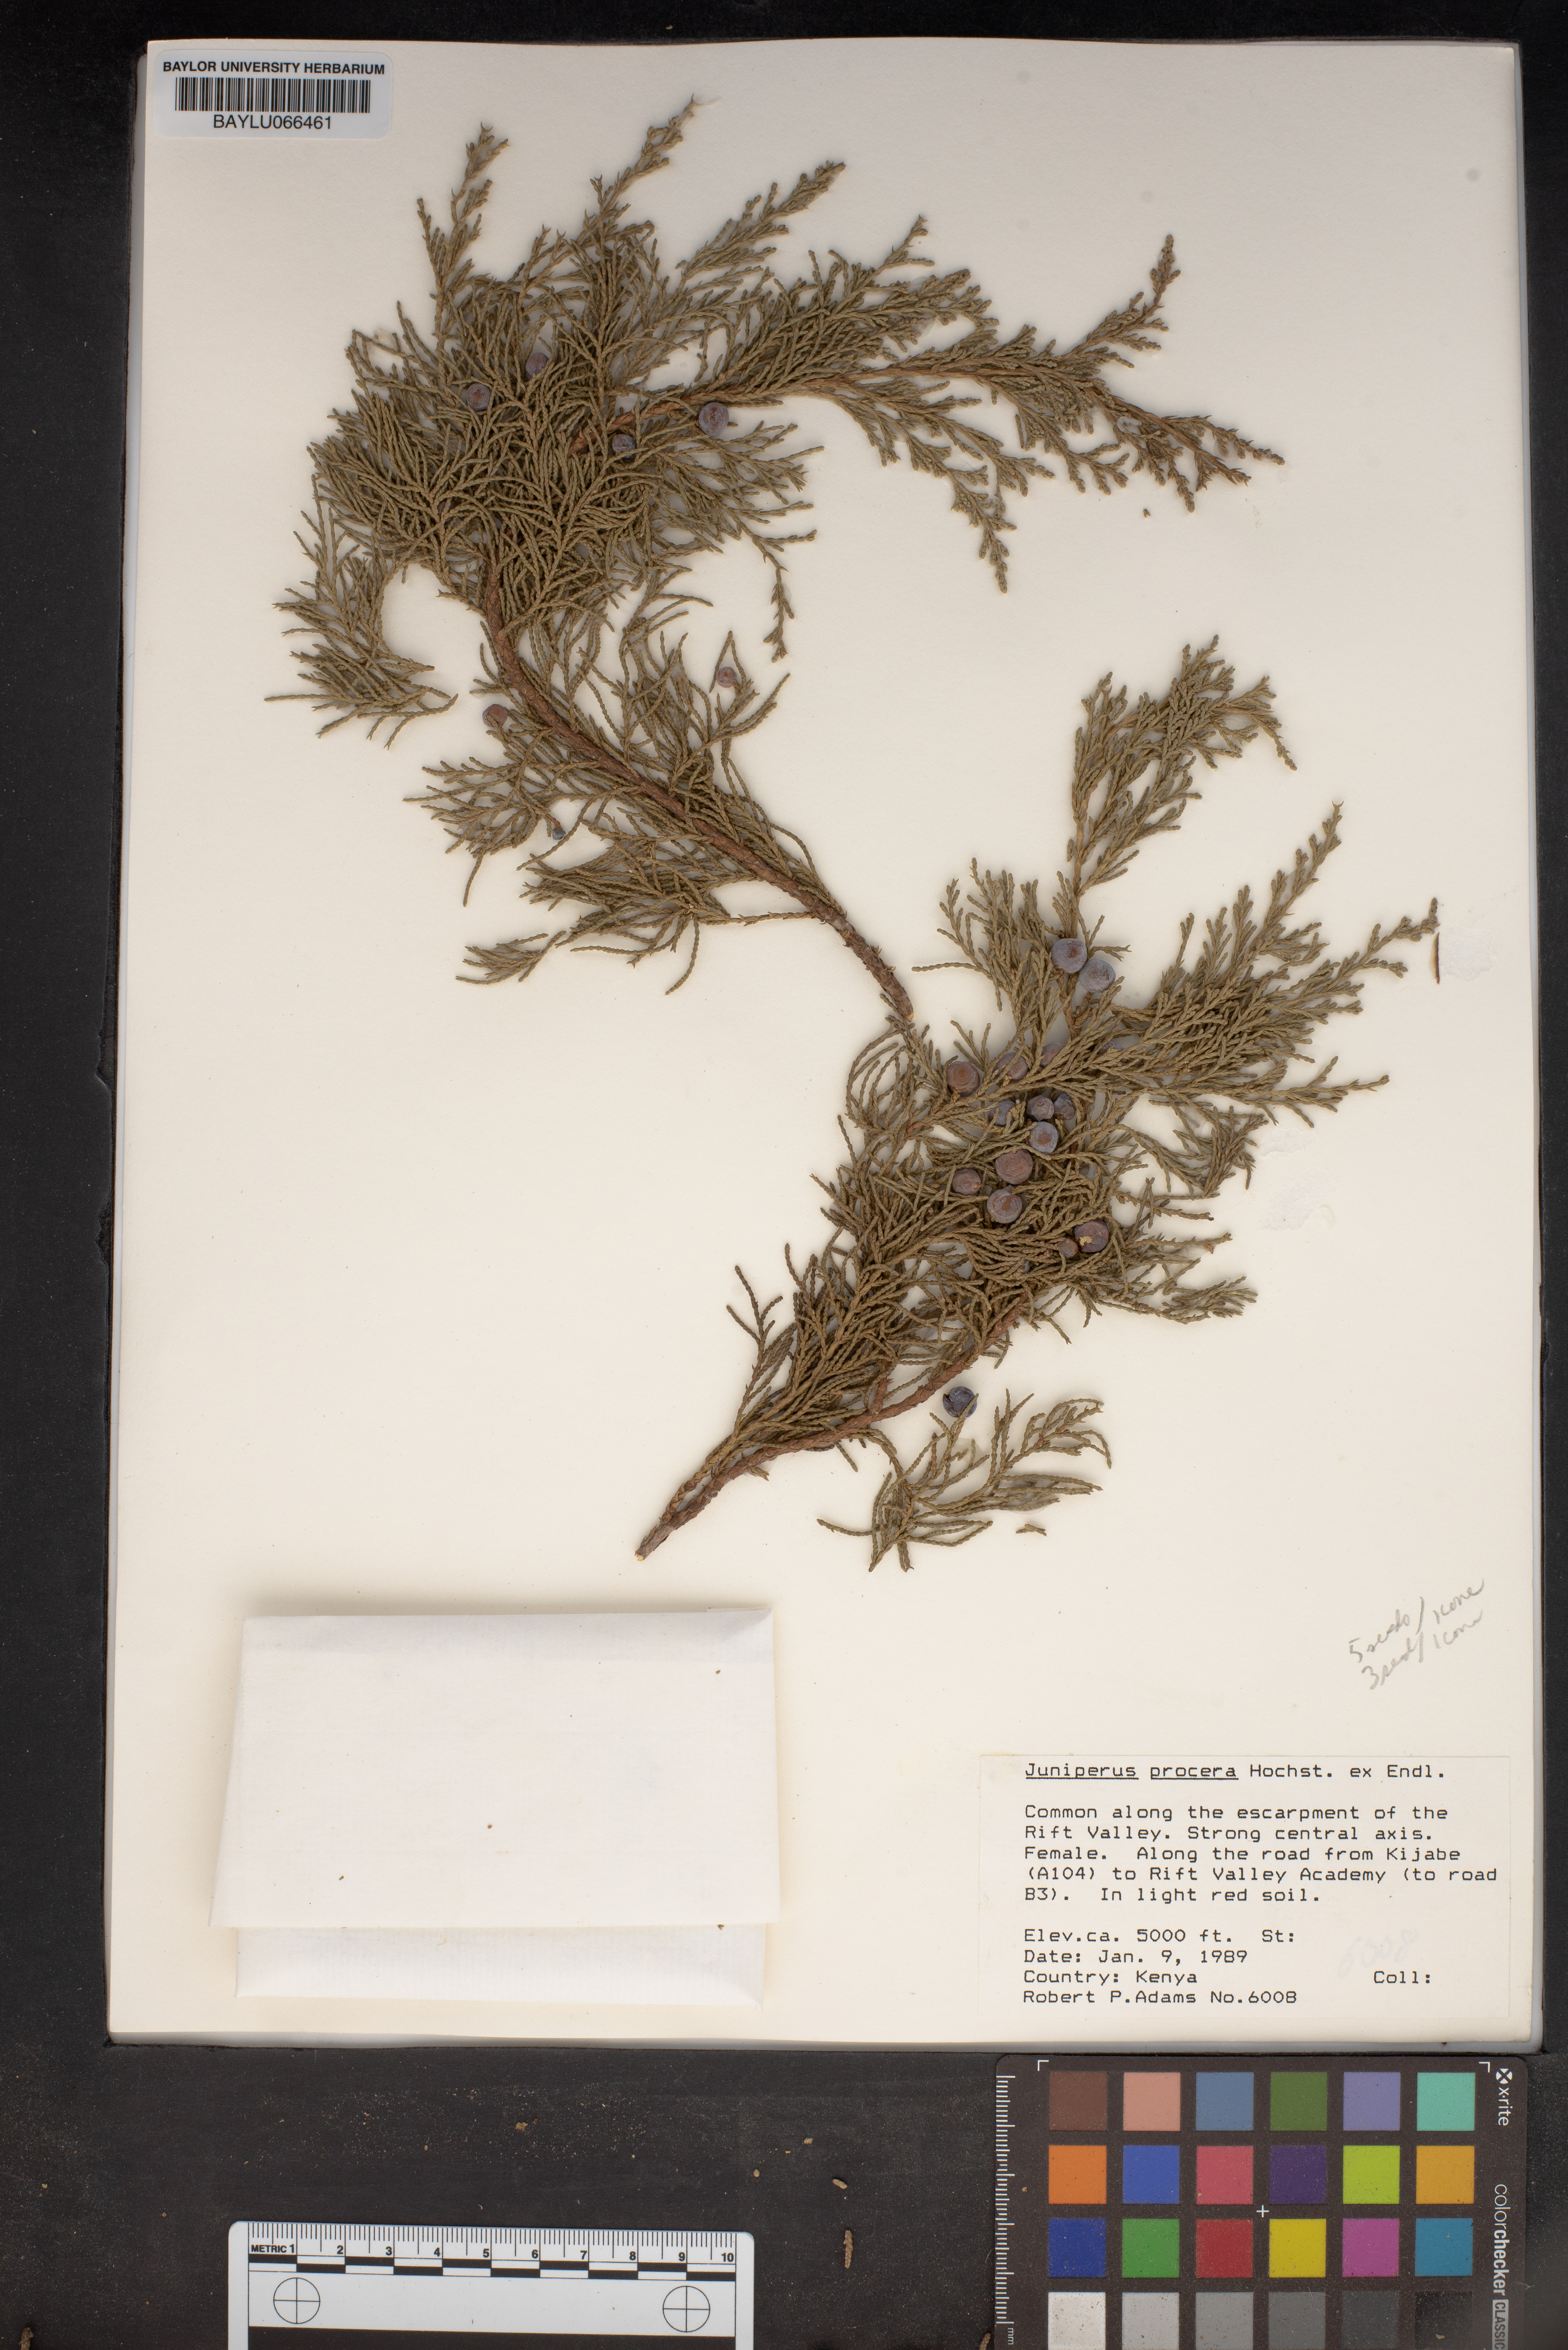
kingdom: Plantae
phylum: Tracheophyta
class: Pinopsida
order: Pinales
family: Cupressaceae
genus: Juniperus
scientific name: Juniperus procera
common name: African juniper
